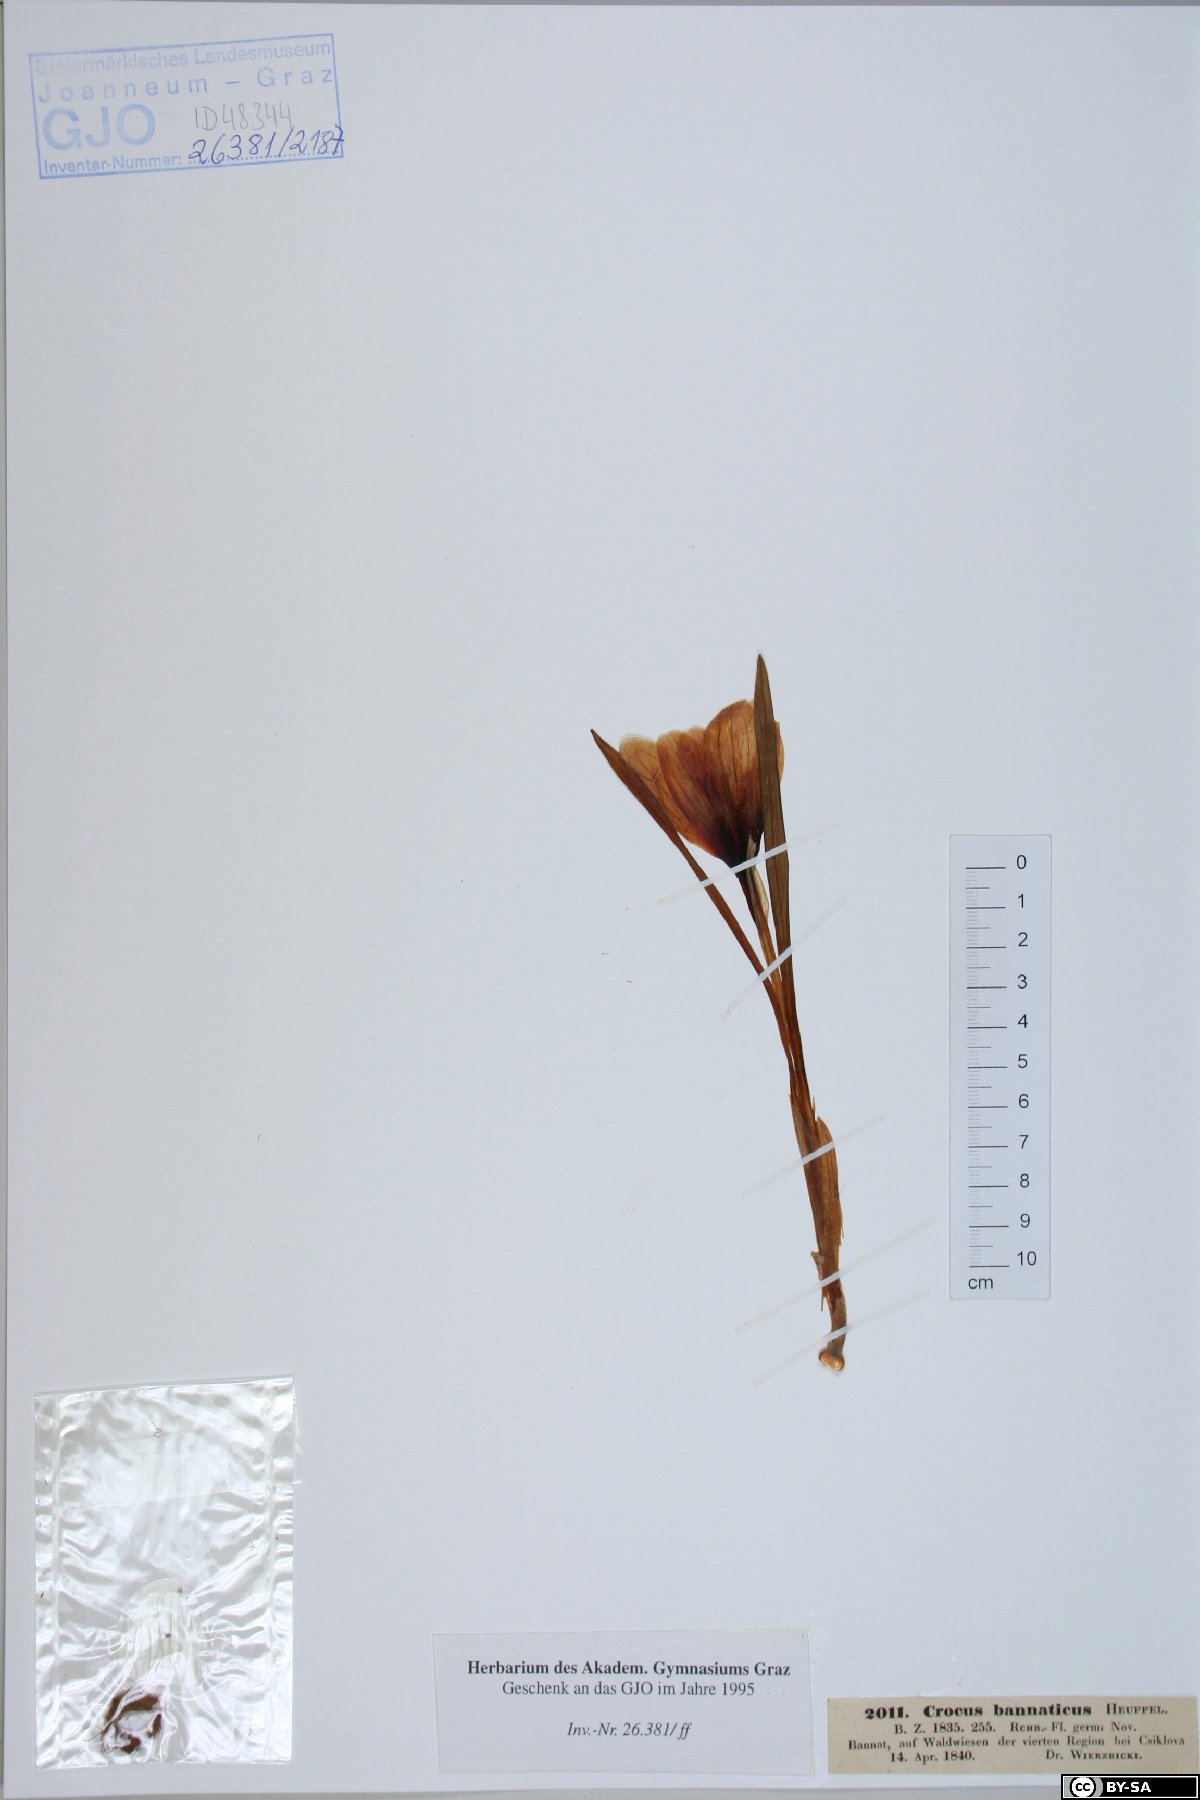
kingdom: Plantae
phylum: Tracheophyta
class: Liliopsida
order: Asparagales
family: Iridaceae
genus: Crocus
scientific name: Crocus heuffelianus
